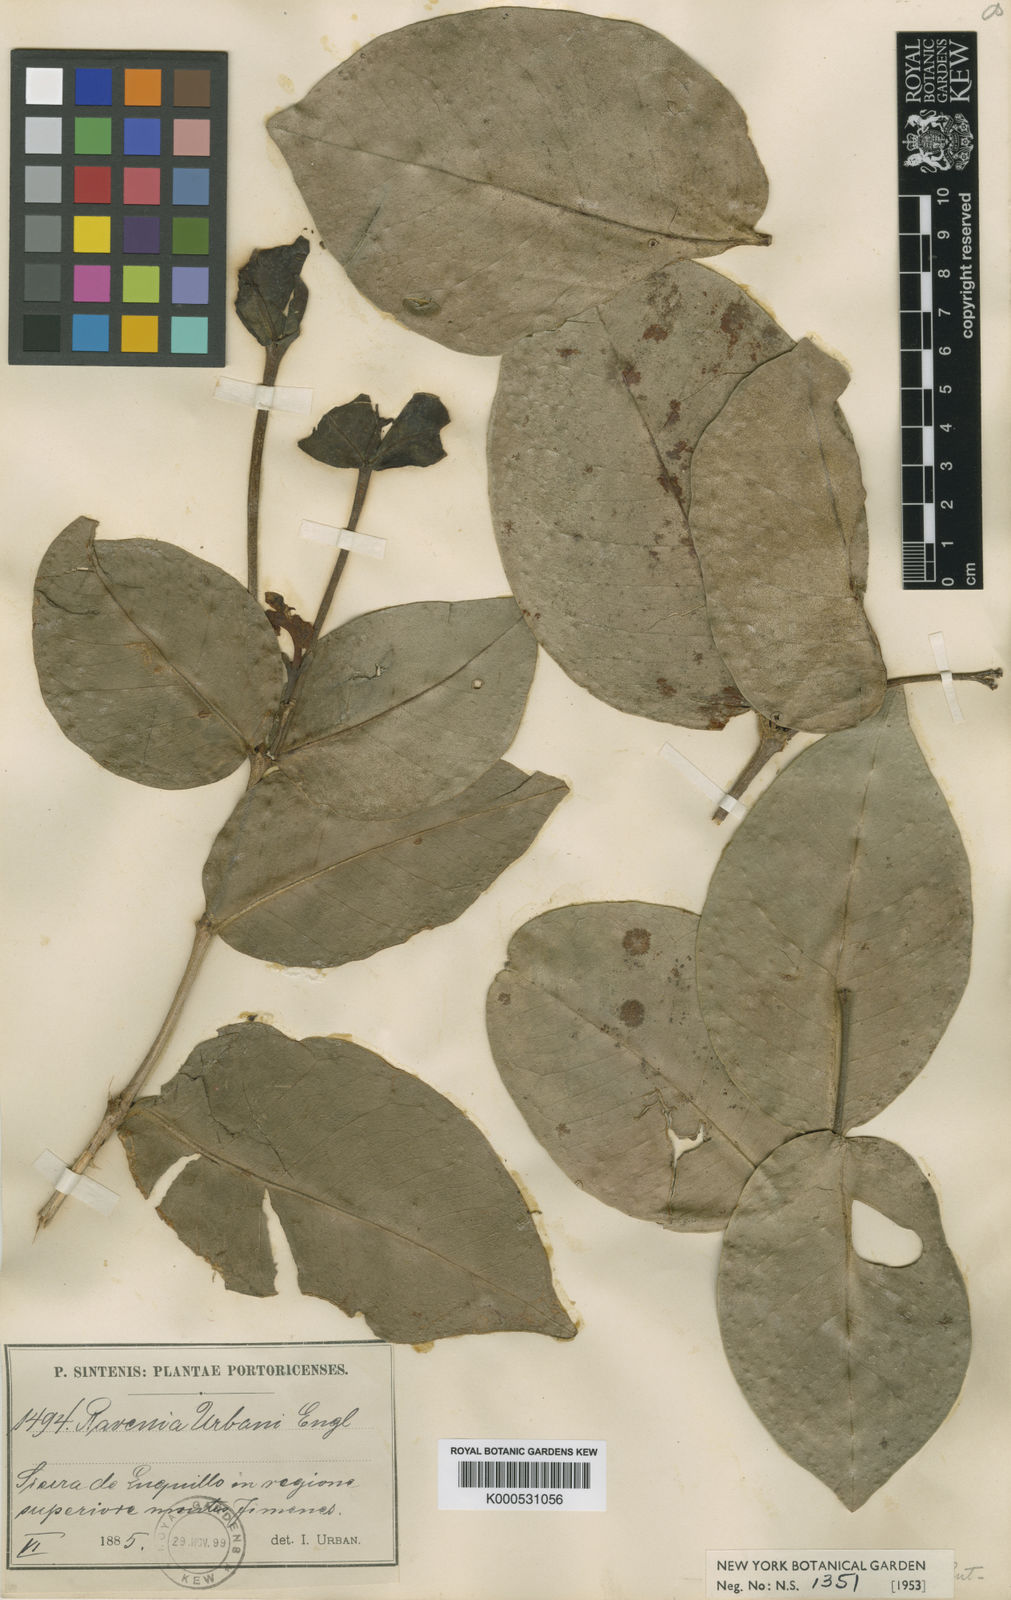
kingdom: Plantae
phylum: Tracheophyta
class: Magnoliopsida
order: Sapindales
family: Rutaceae
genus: Ravenia
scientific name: Ravenia
